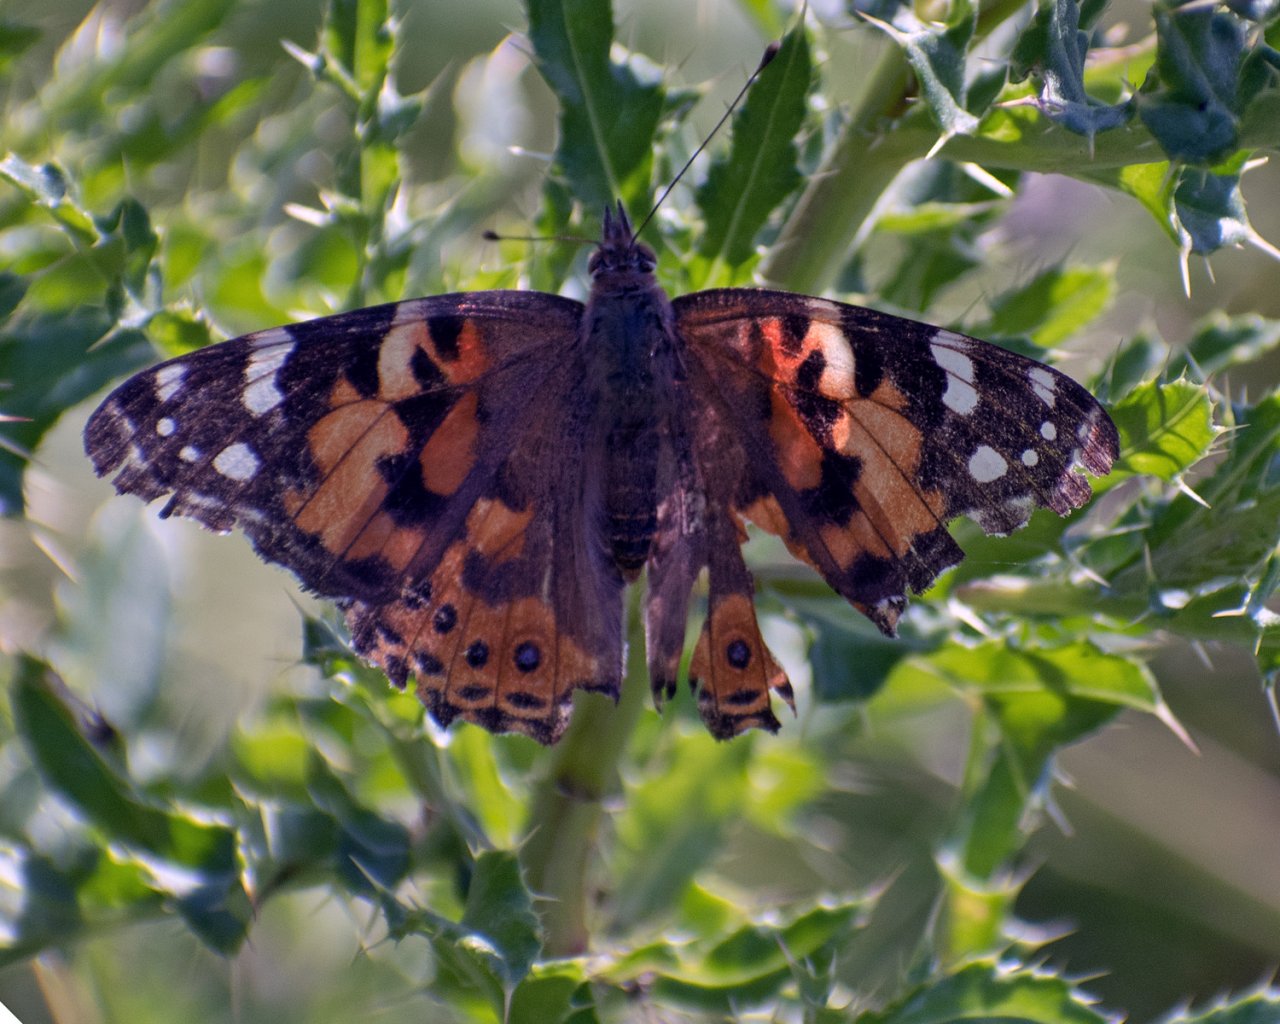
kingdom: Animalia
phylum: Arthropoda
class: Insecta
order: Lepidoptera
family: Nymphalidae
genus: Vanessa
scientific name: Vanessa cardui
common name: Painted Lady
